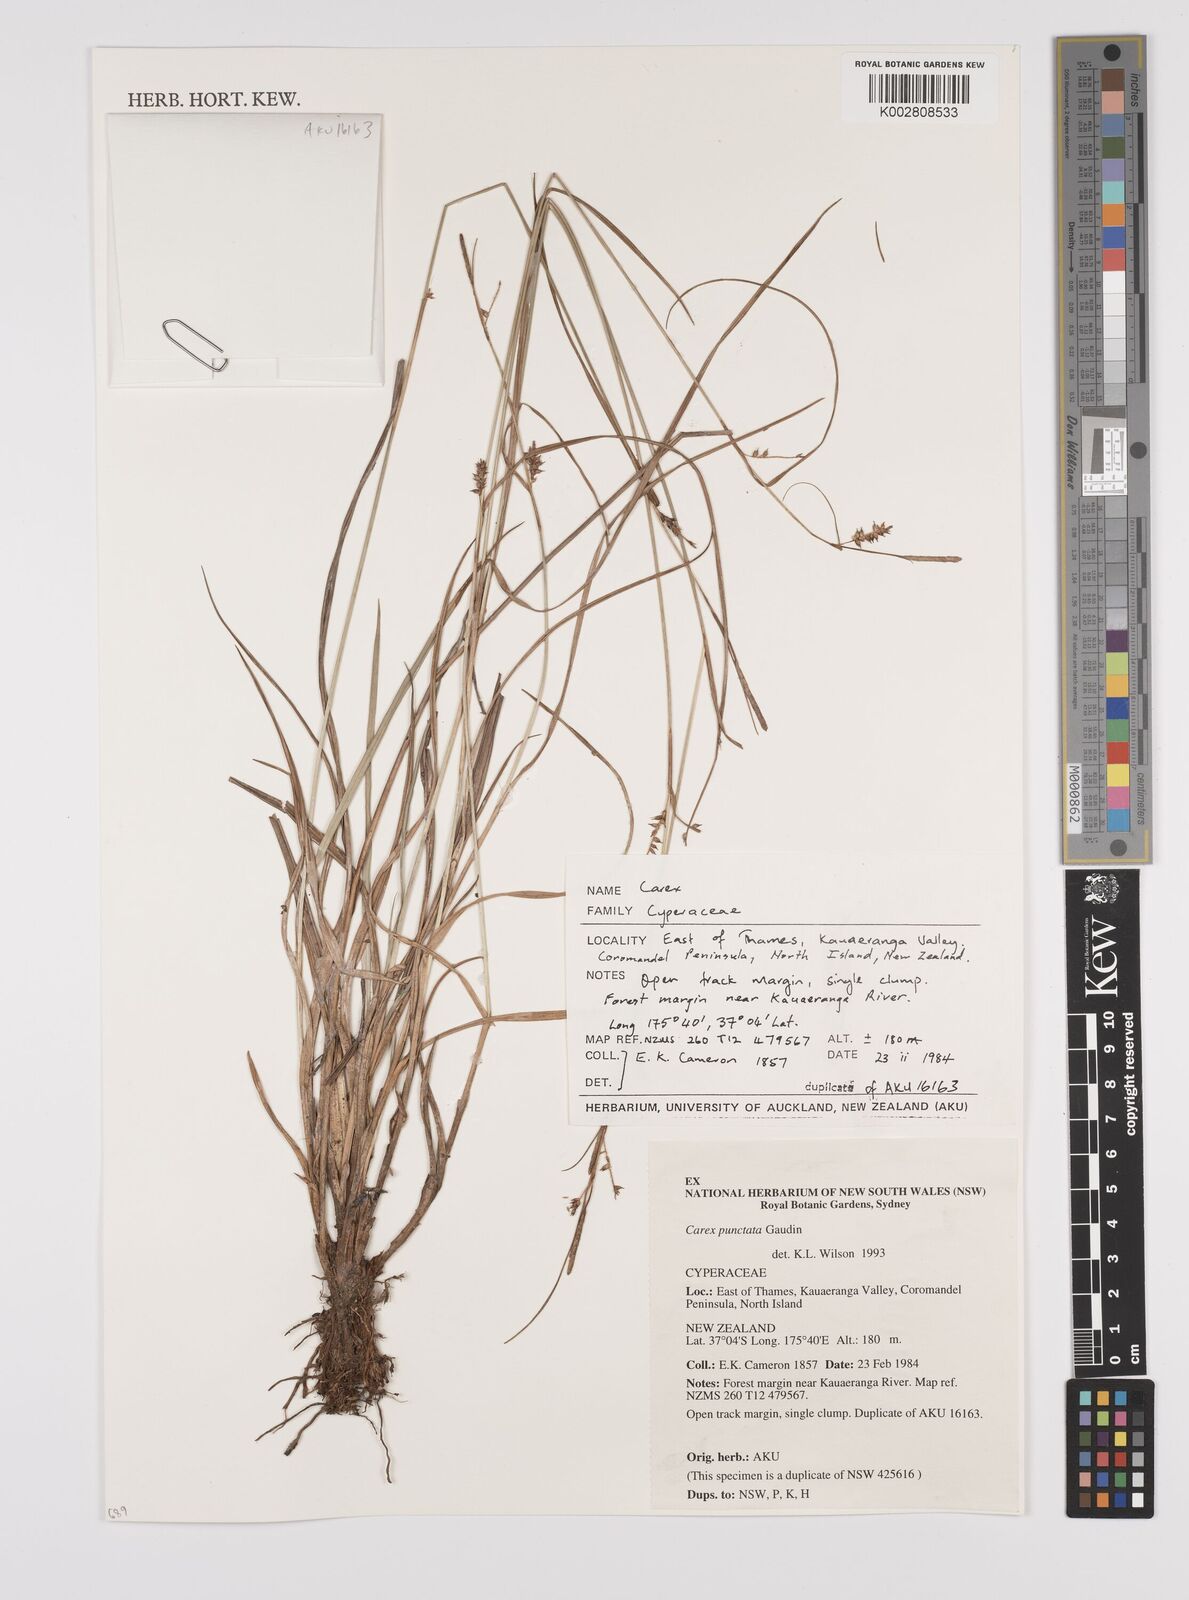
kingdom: Plantae
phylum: Tracheophyta
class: Liliopsida
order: Poales
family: Cyperaceae
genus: Carex
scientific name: Carex punctata
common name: Dotted sedge
